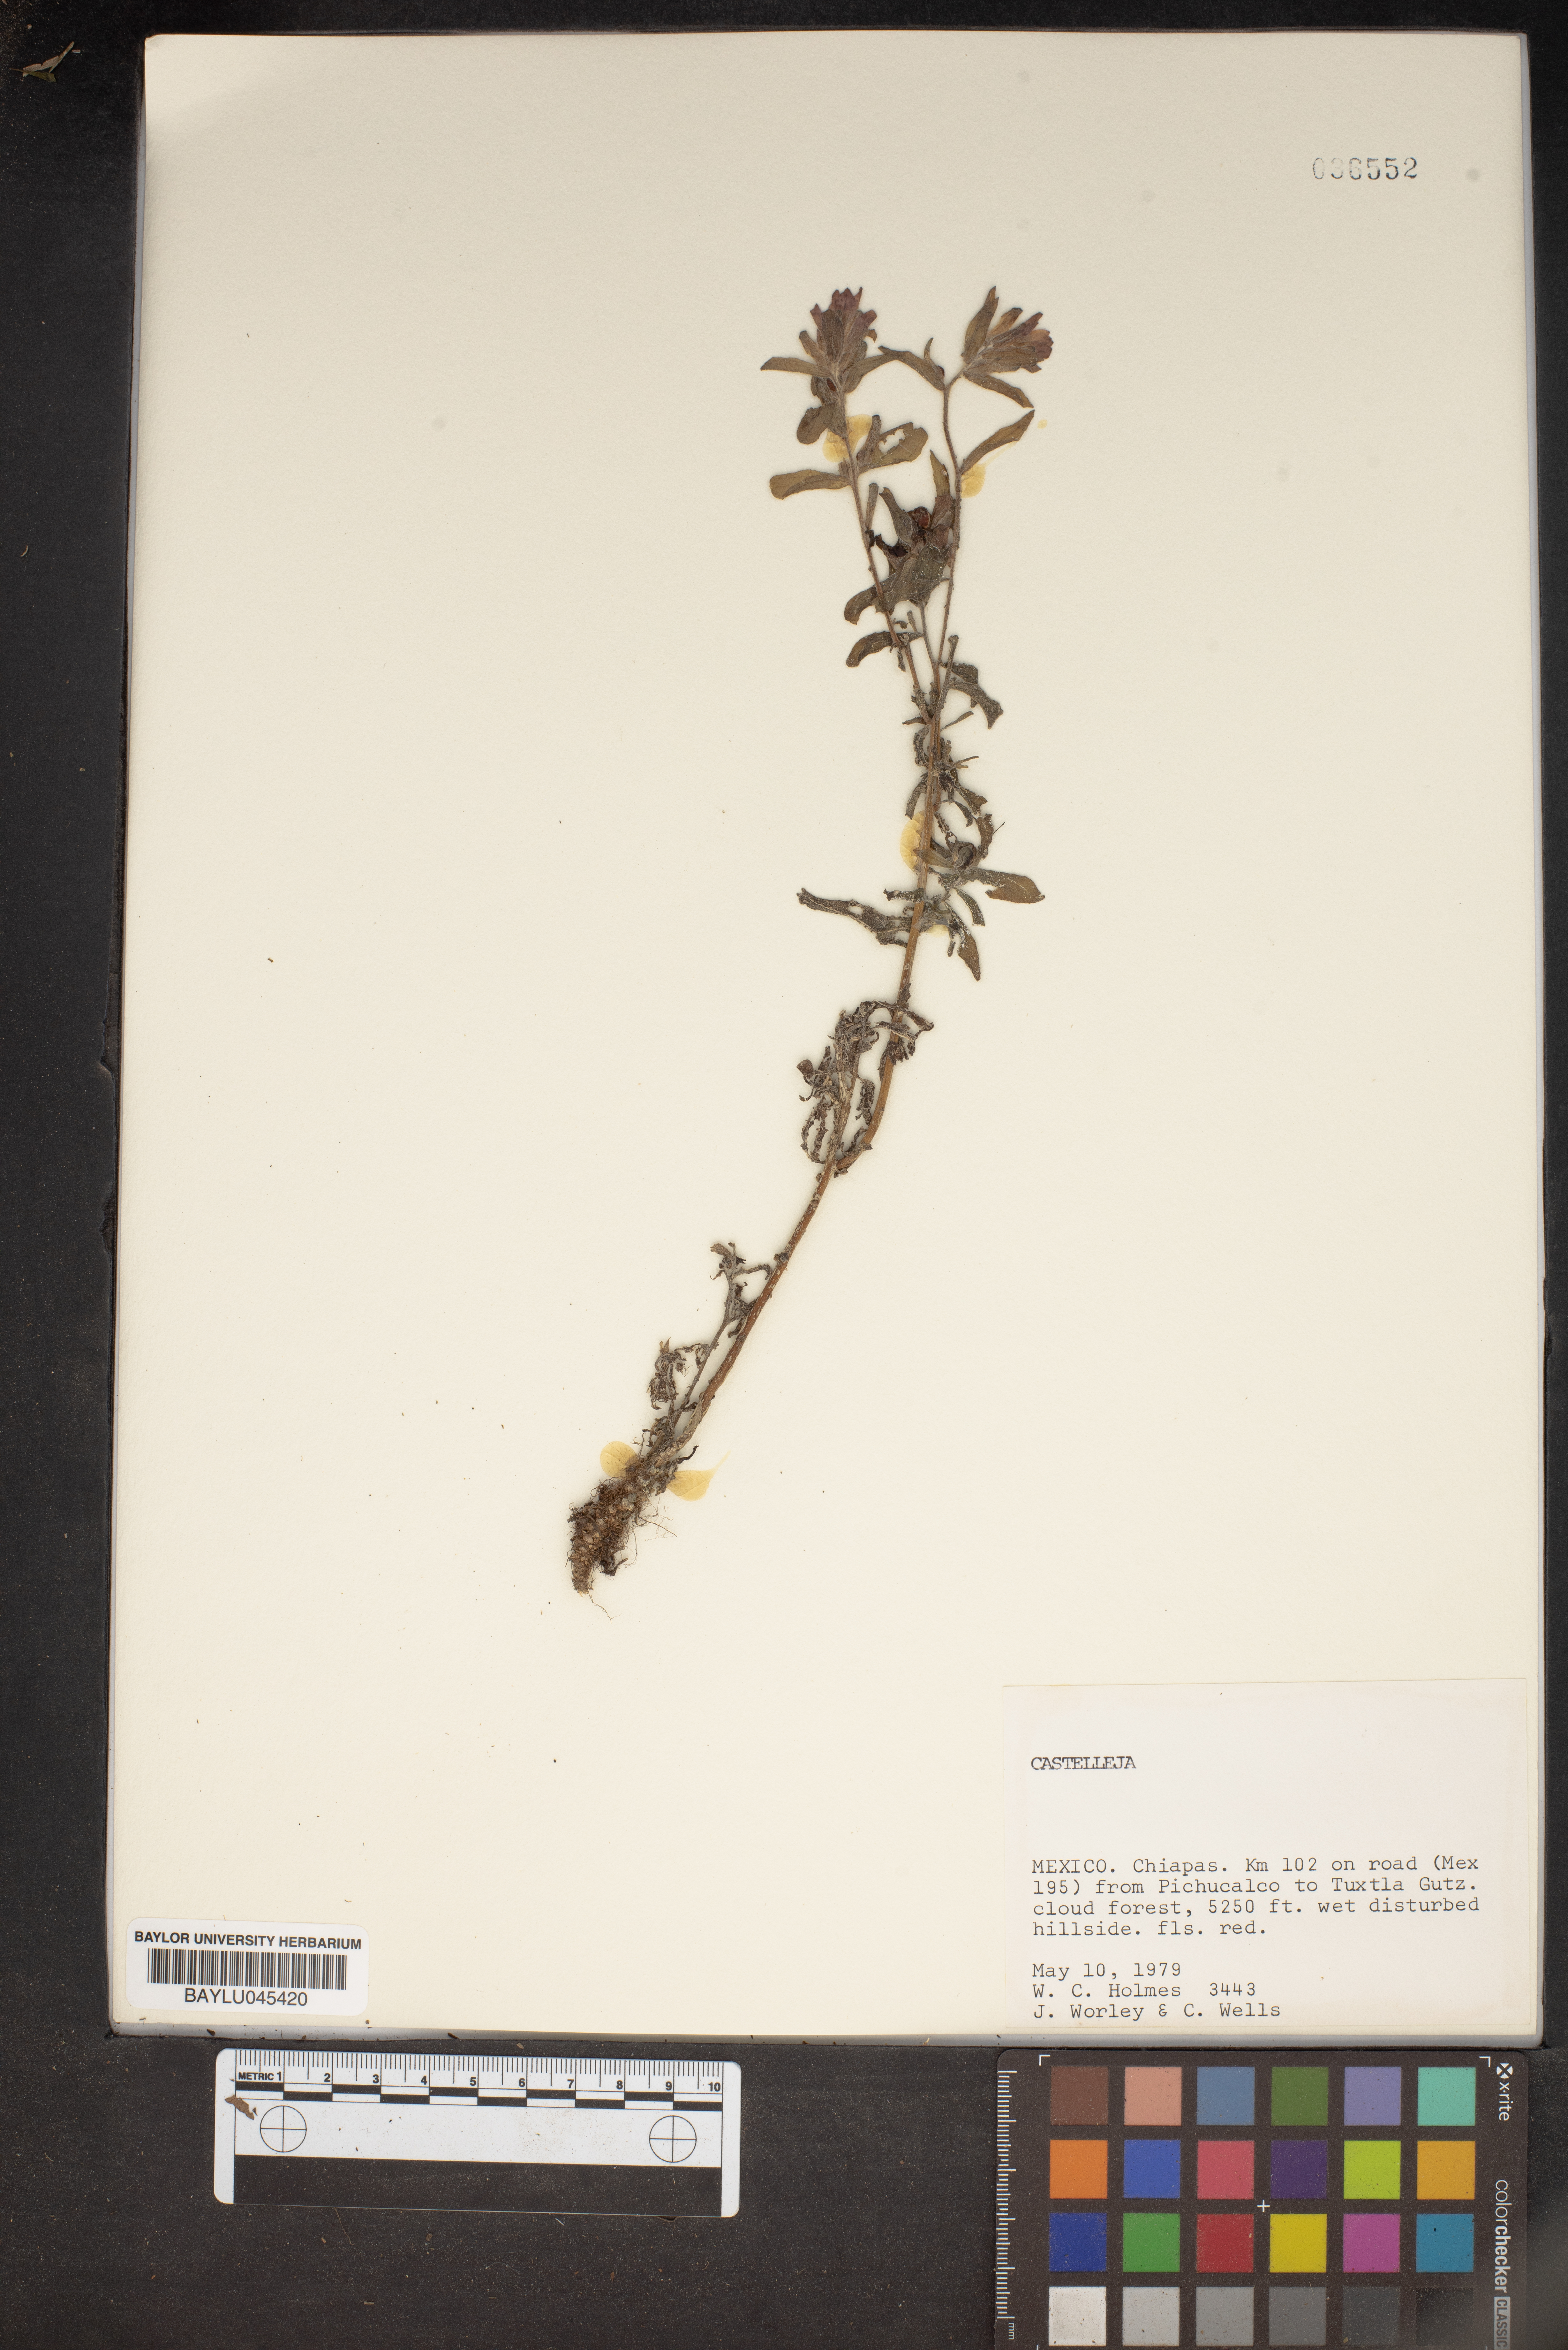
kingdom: Plantae
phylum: Tracheophyta
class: Magnoliopsida
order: Lamiales
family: Orobanchaceae
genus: Castilleja
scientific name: Castilleja
